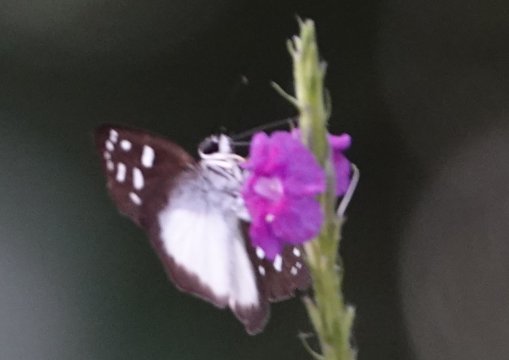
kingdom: Animalia
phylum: Arthropoda
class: Insecta
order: Lepidoptera
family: Hesperiidae
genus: Hyalothyrus
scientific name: Hyalothyrus neleus
